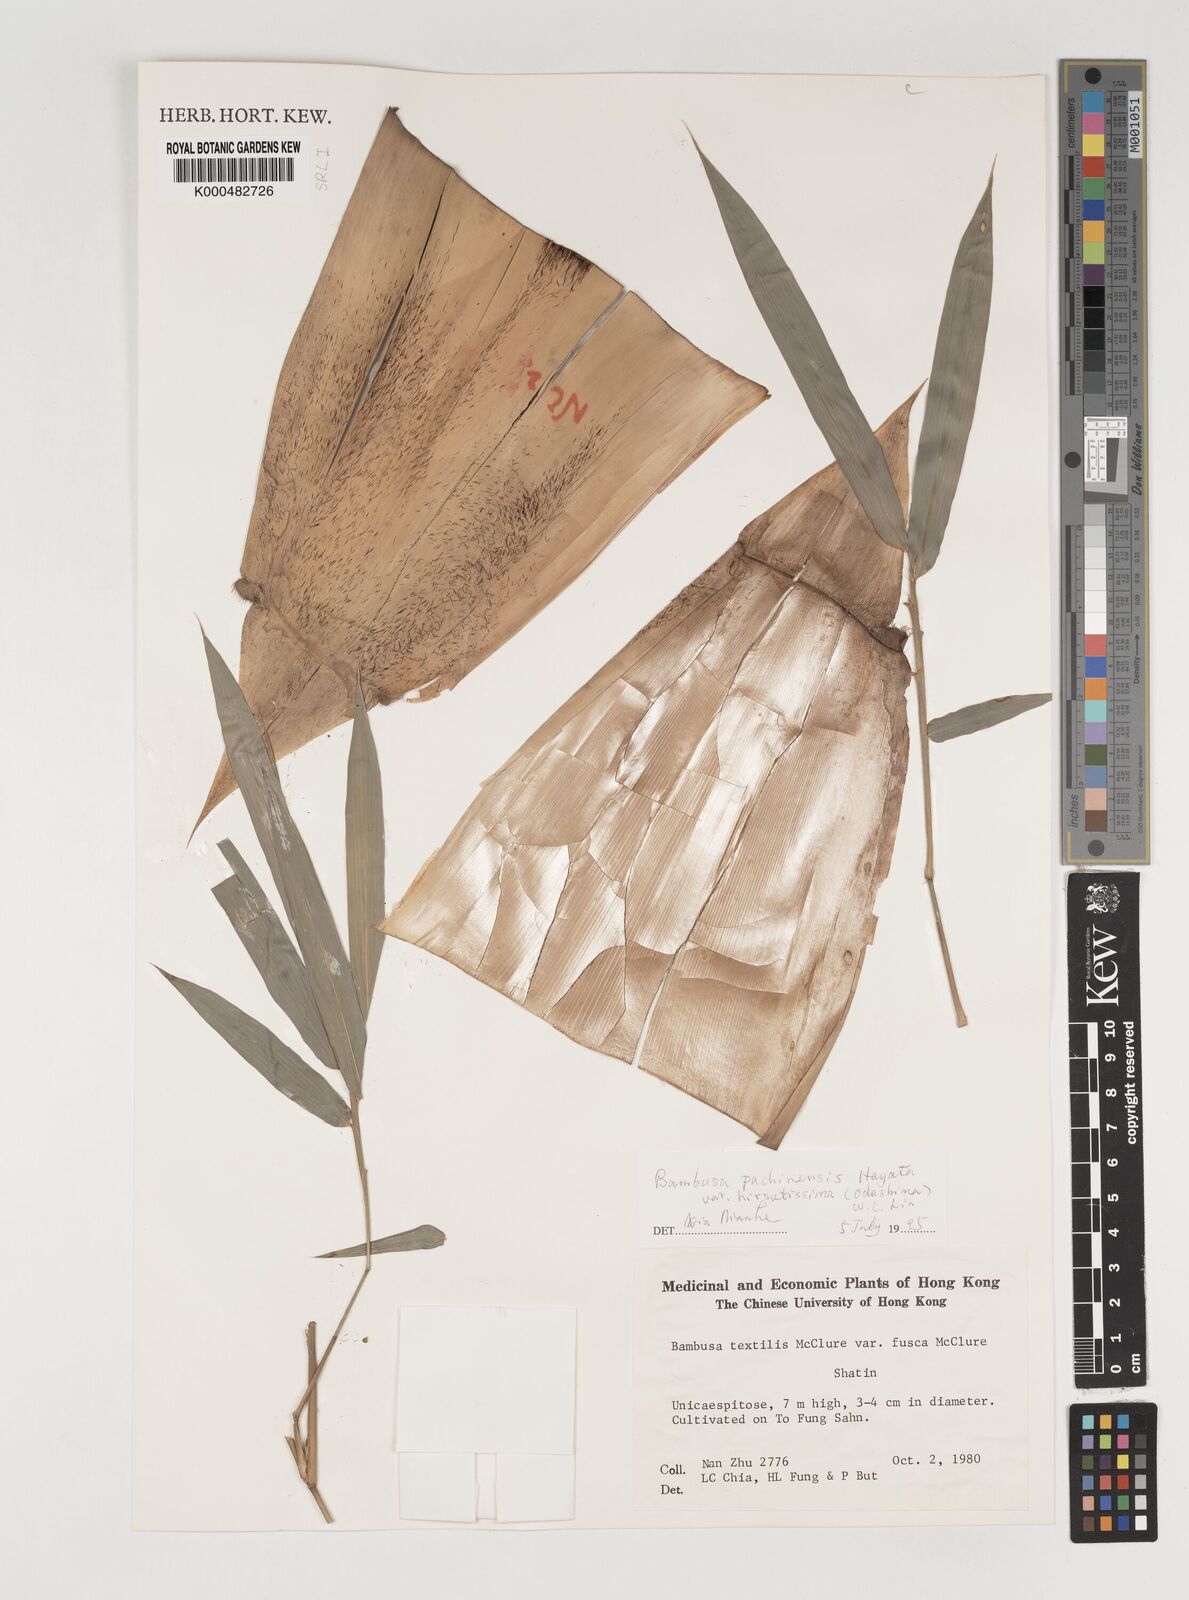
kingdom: Plantae
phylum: Tracheophyta
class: Liliopsida
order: Poales
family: Poaceae
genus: Bambusa
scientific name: Bambusa
